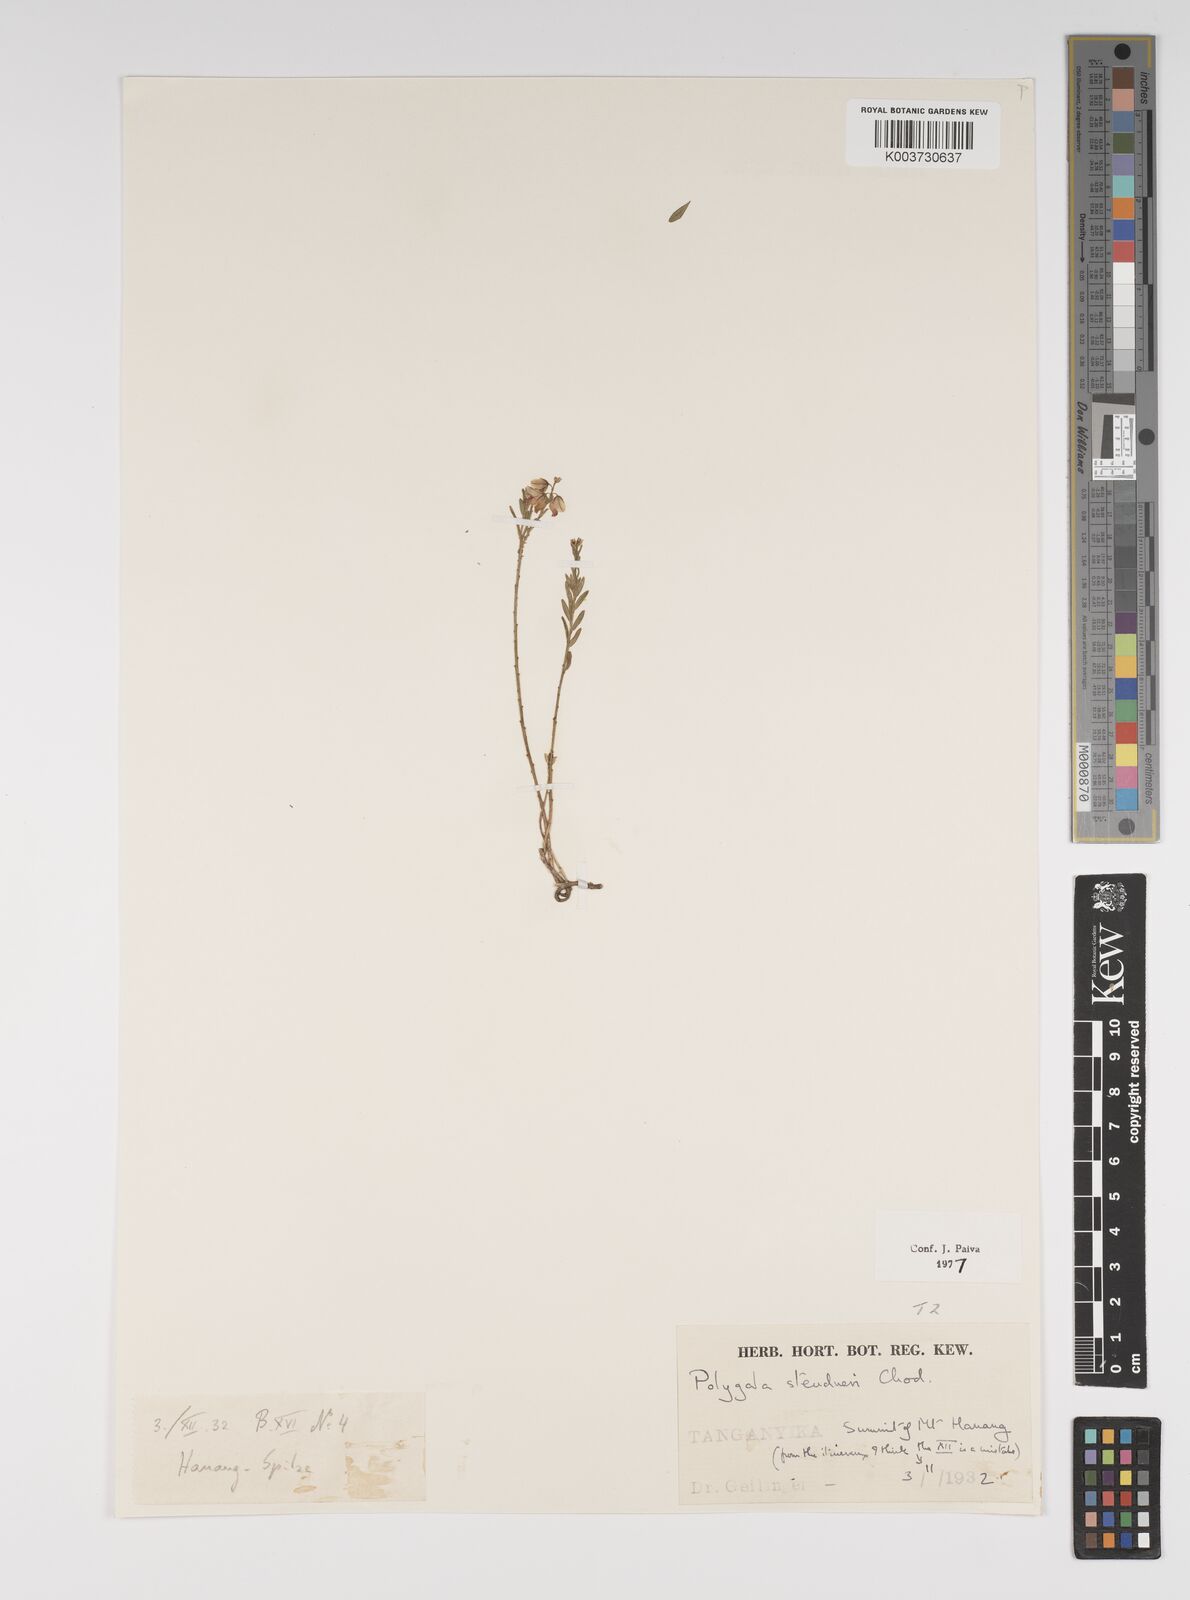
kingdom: Plantae
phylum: Tracheophyta
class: Magnoliopsida
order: Fabales
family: Polygalaceae
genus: Polygala
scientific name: Polygala steudneri
